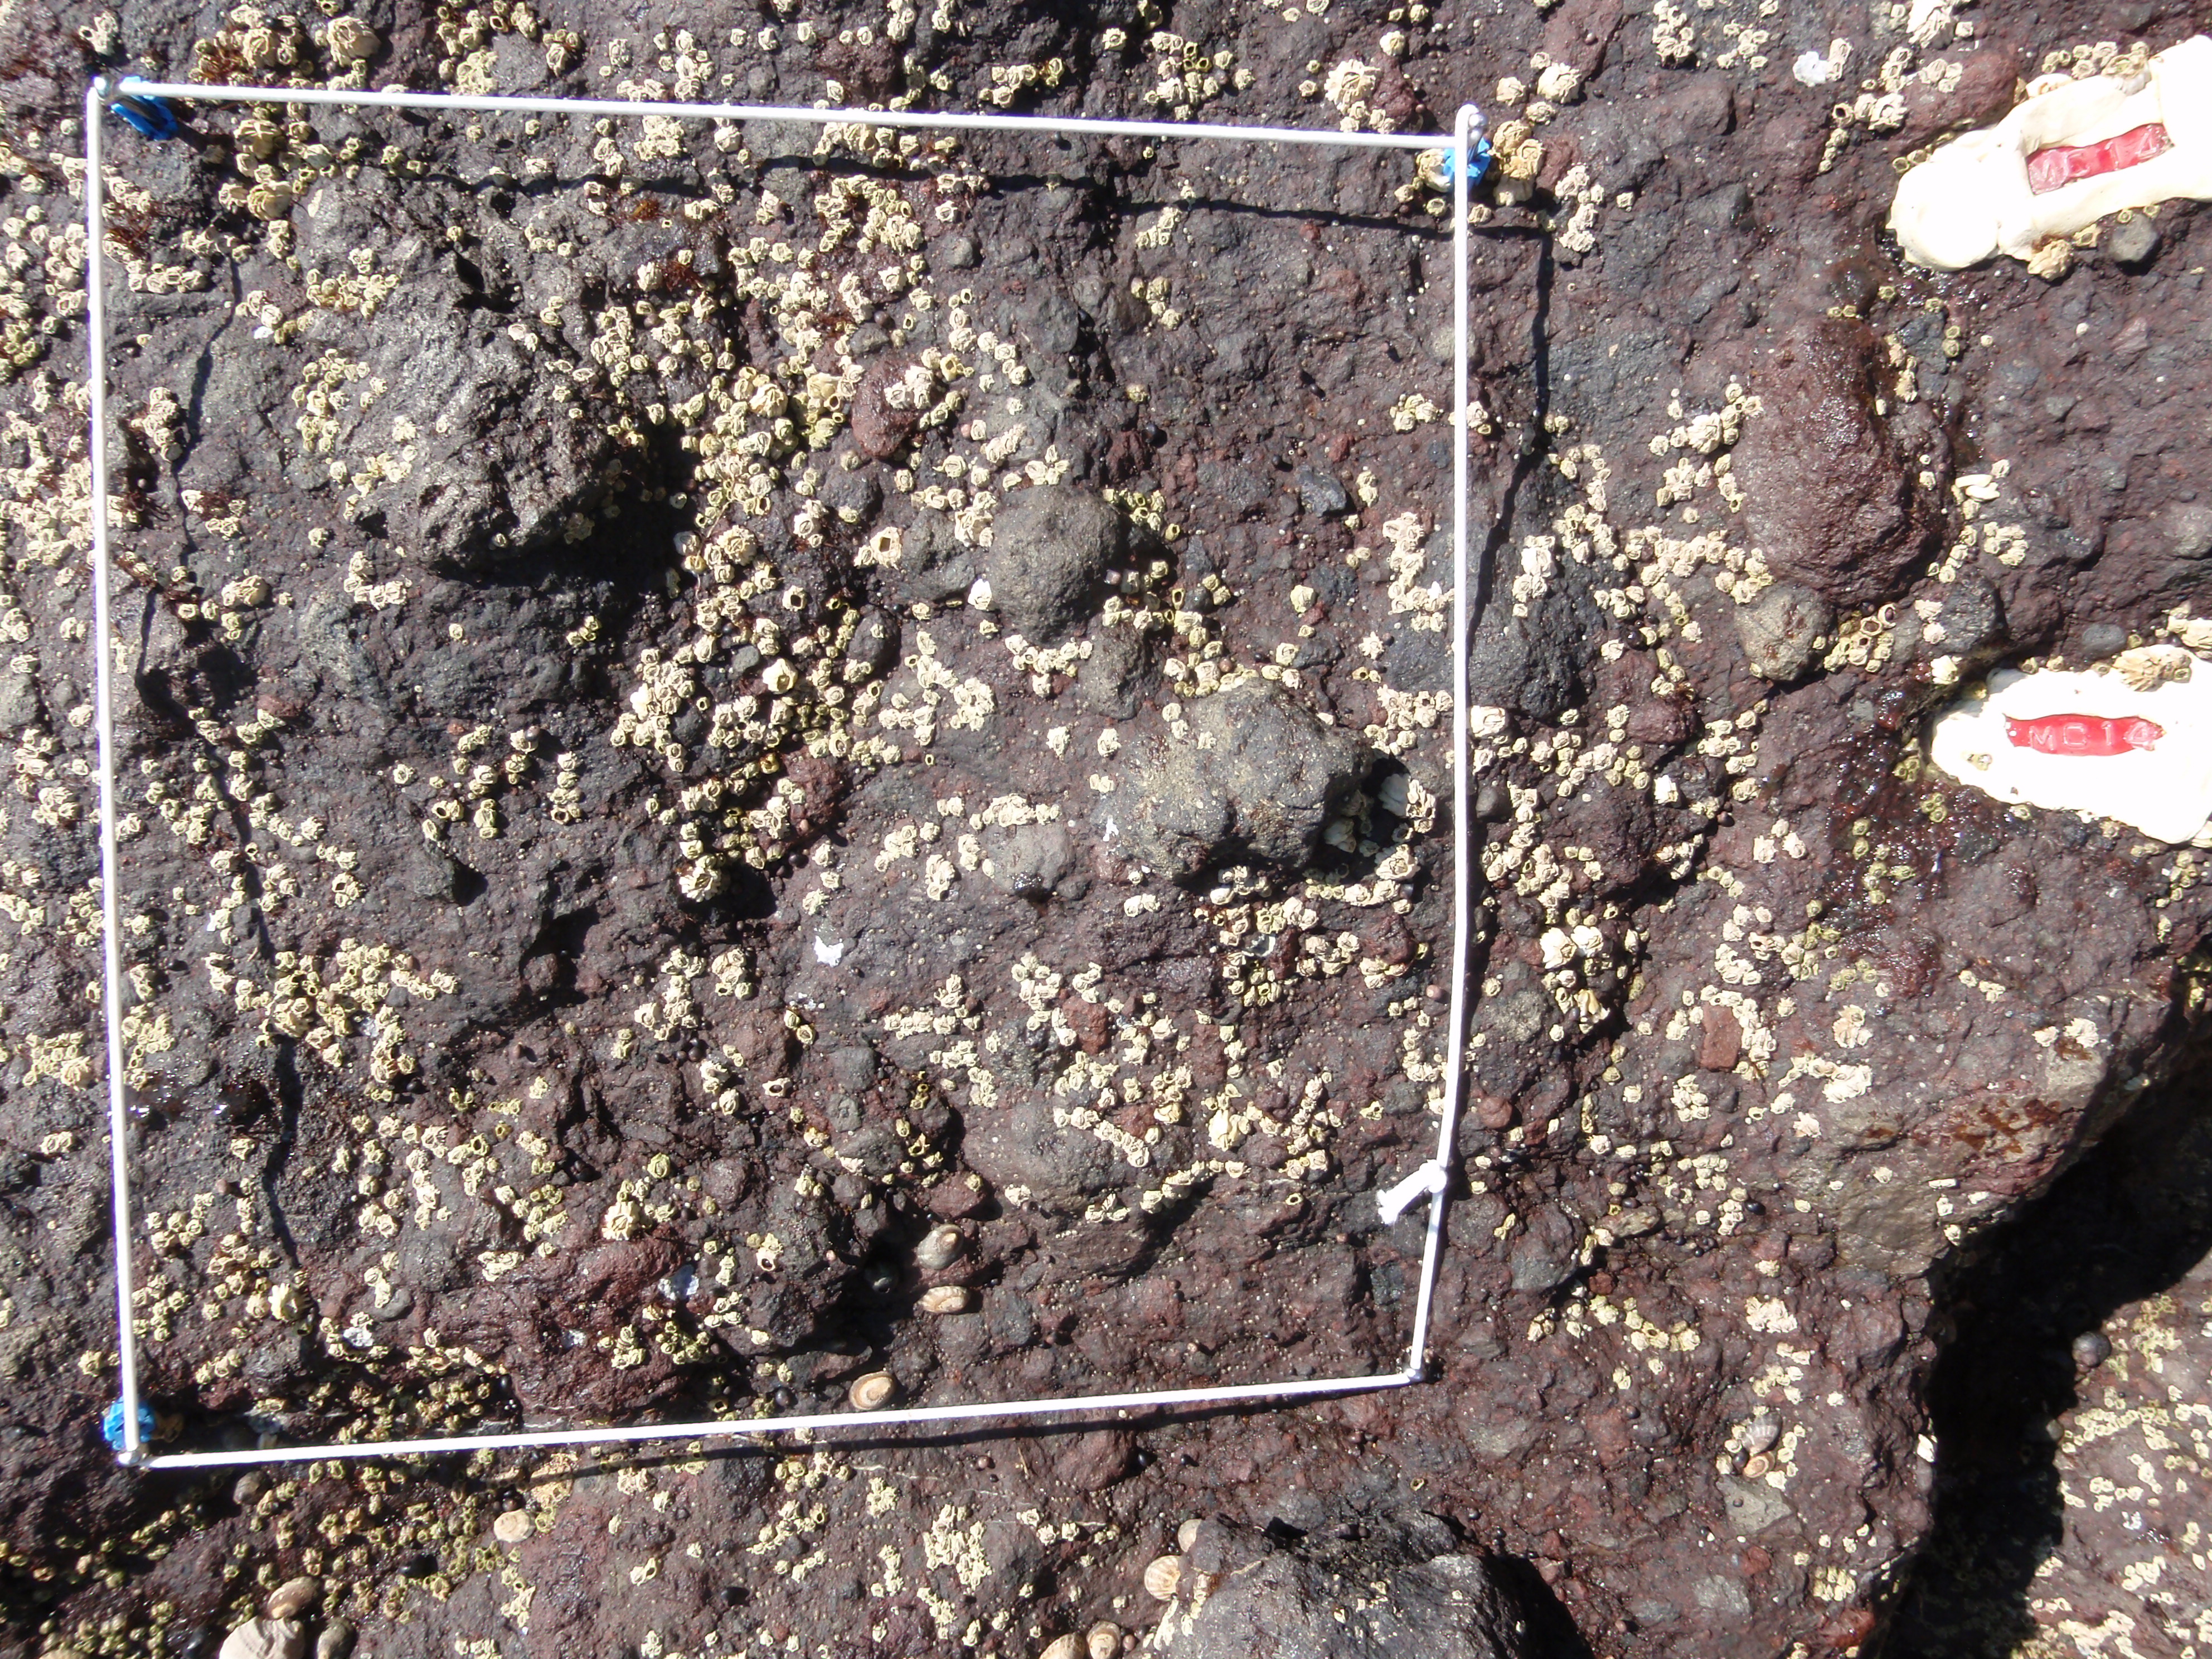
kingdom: Plantae
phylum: Rhodophyta
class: Florideophyceae
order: Gigartinales
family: Endocladiaceae
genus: Gloiopeltis
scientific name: Gloiopeltis furcata
